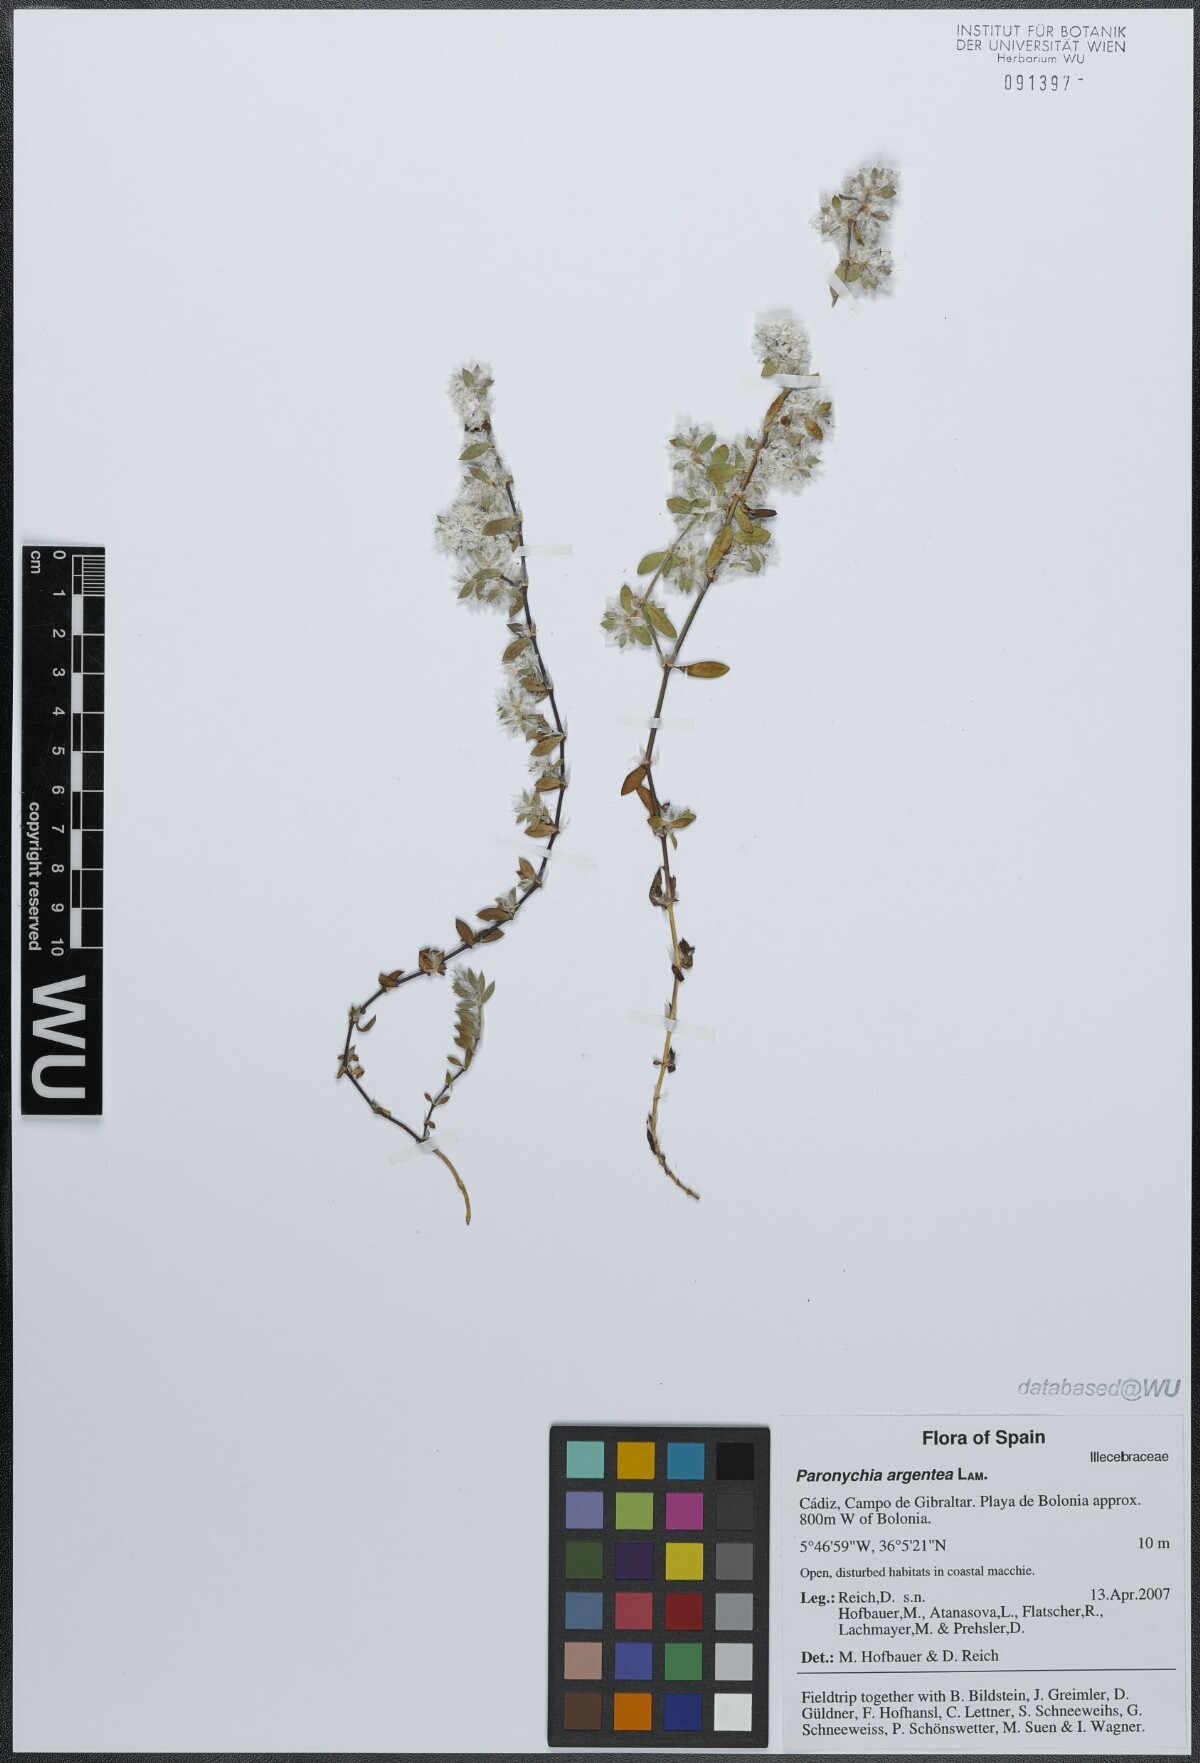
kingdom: Plantae
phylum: Tracheophyta
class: Magnoliopsida
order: Caryophyllales
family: Caryophyllaceae
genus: Paronychia
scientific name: Paronychia argentea
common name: Silver nailroot
